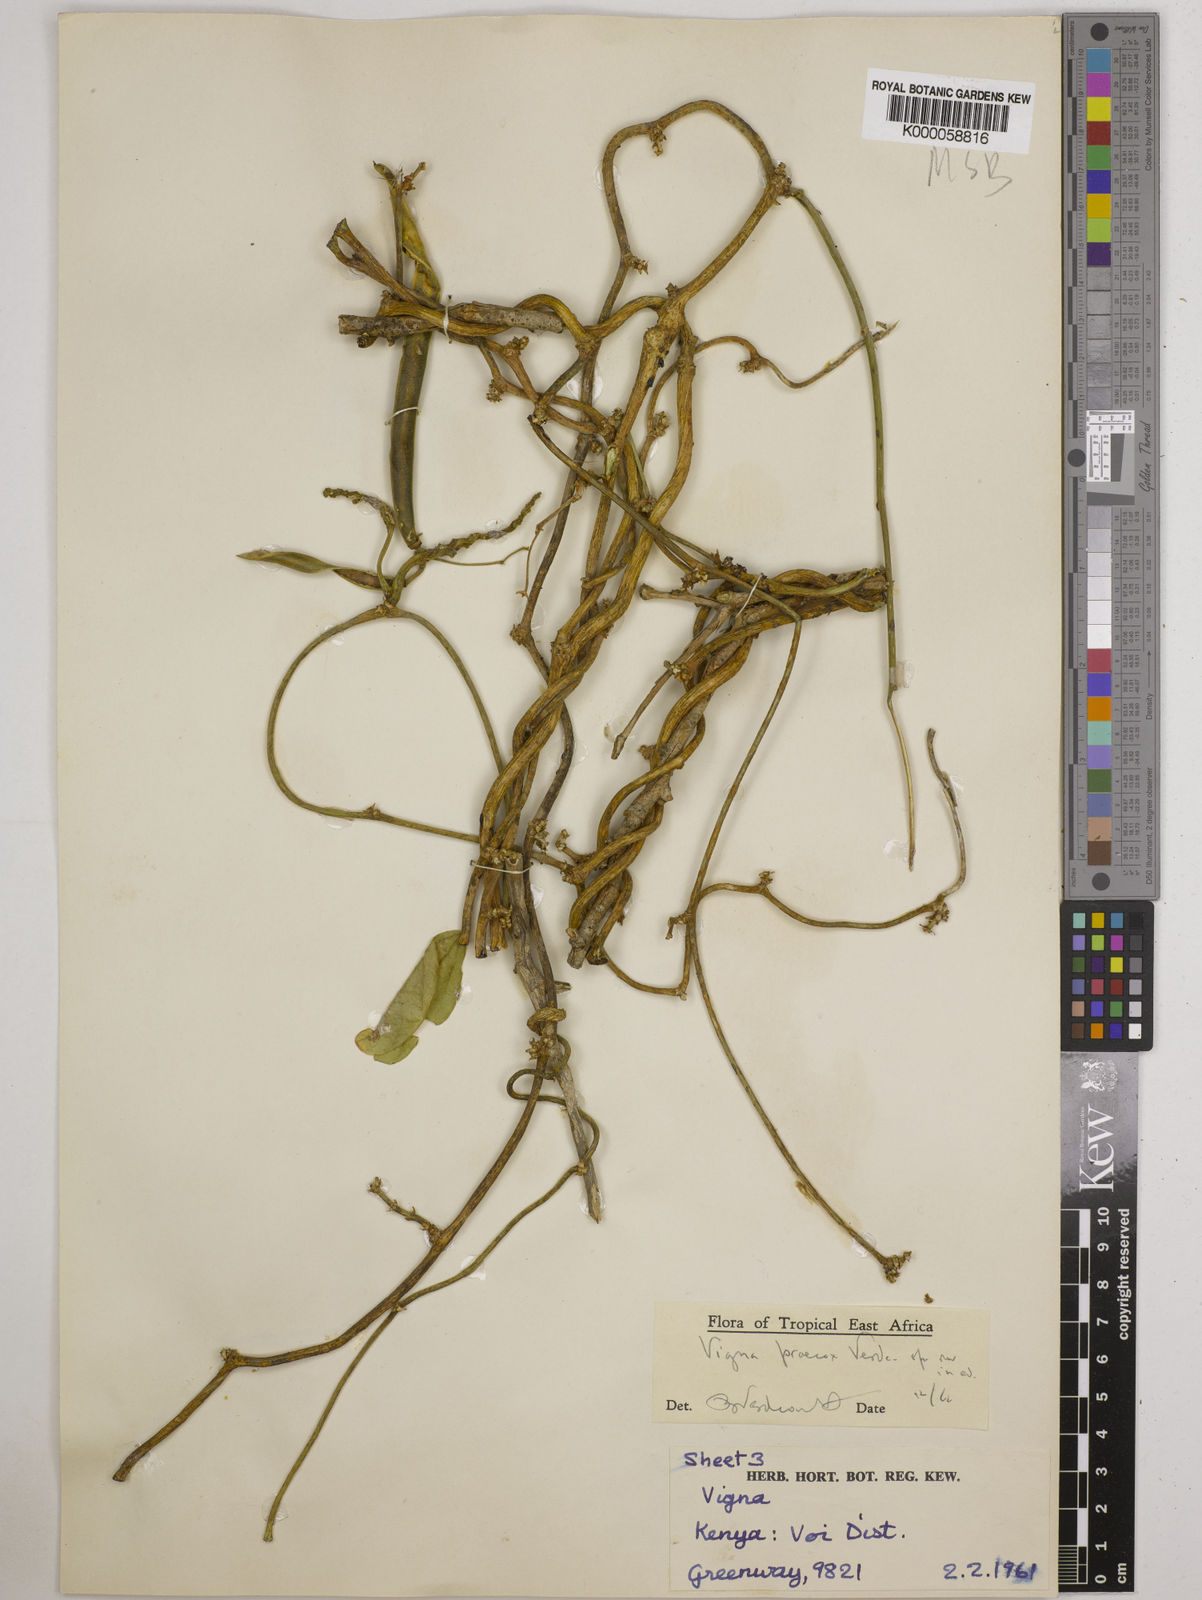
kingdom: Plantae
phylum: Tracheophyta
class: Magnoliopsida
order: Fabales
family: Fabaceae
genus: Wajira
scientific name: Wajira praecox
